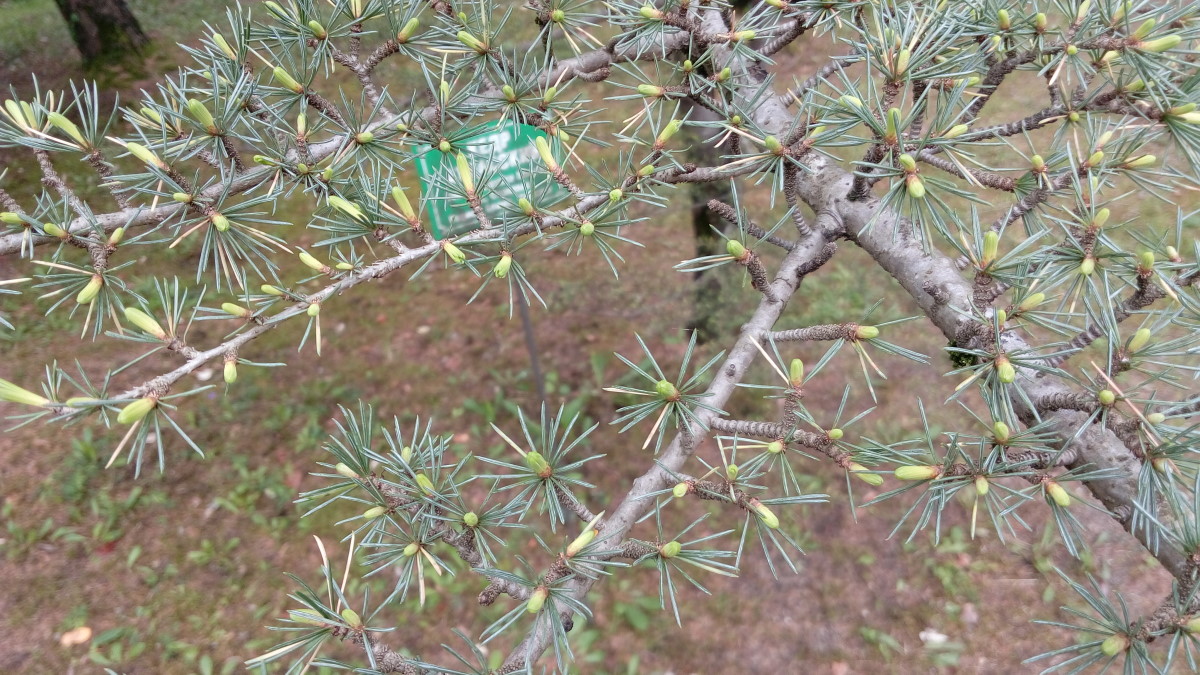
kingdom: Plantae
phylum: Tracheophyta
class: Pinopsida
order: Pinales
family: Pinaceae
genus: Cedrus
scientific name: Cedrus deodara
